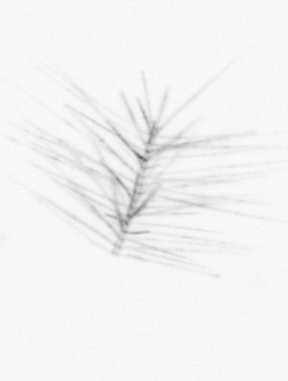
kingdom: Chromista
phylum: Ochrophyta
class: Bacillariophyceae
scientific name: Bacillariophyceae
